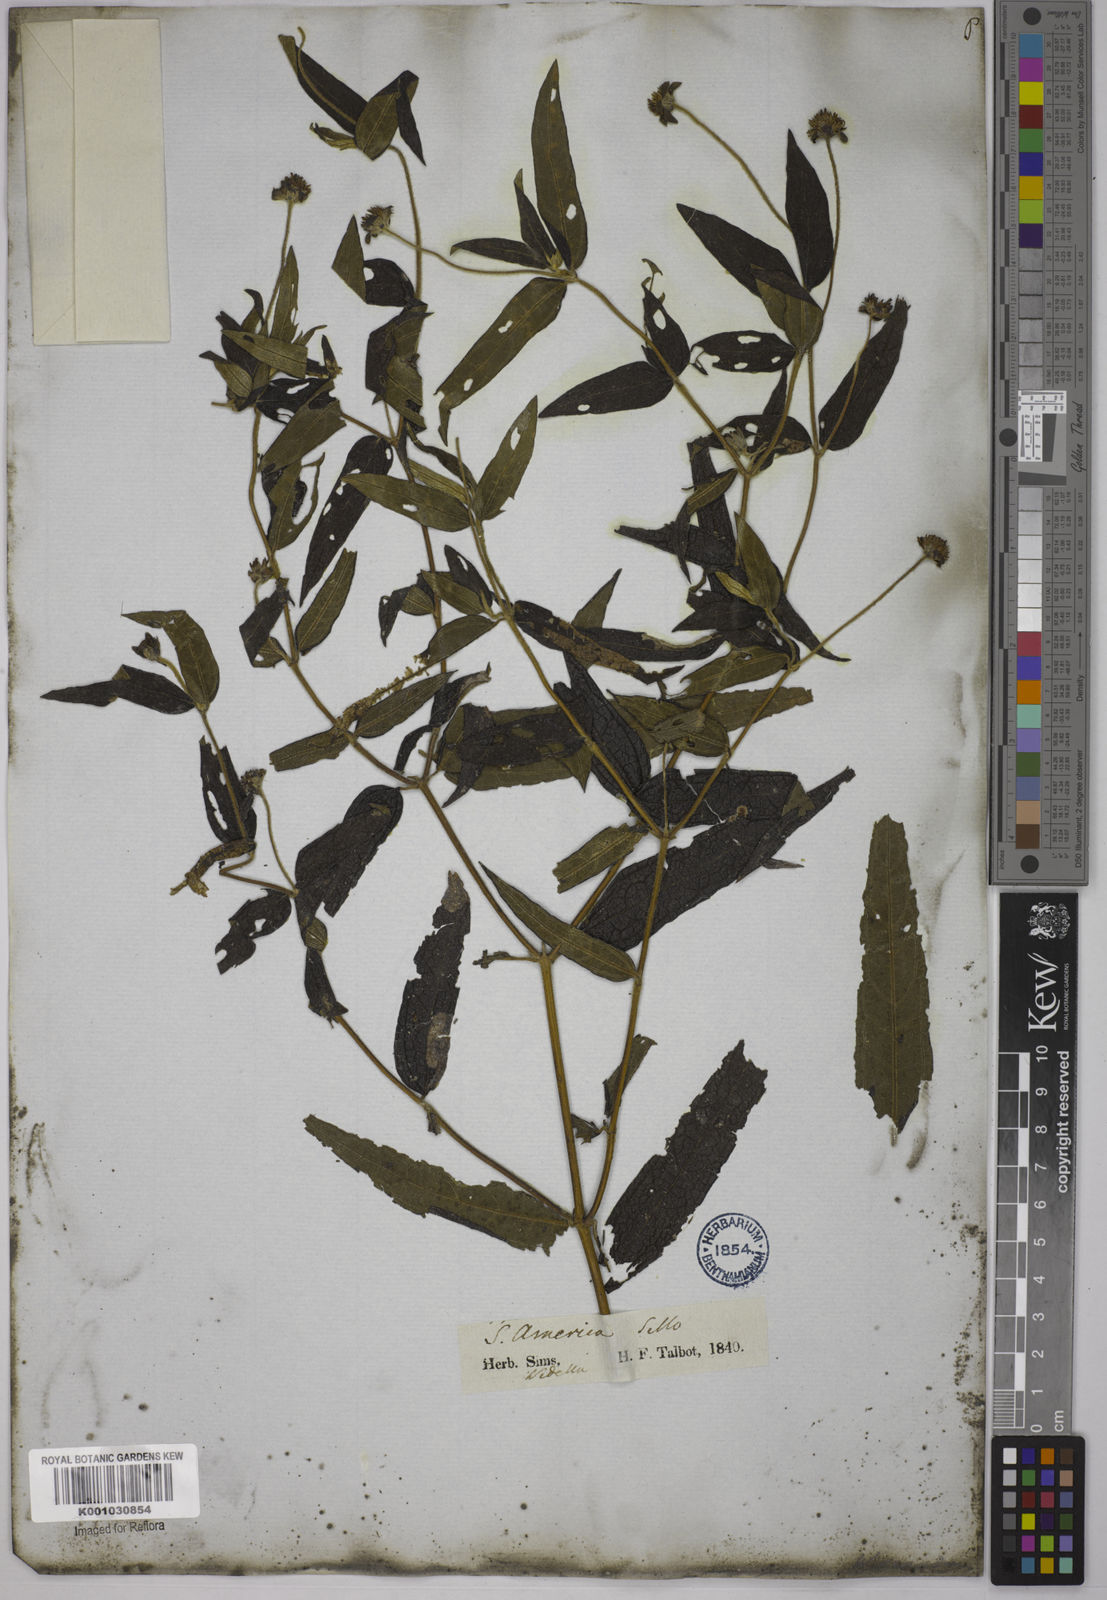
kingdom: Plantae
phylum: Tracheophyta
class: Magnoliopsida
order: Asterales
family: Asteraceae
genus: Wedelia
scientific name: Wedelia subvelutina
